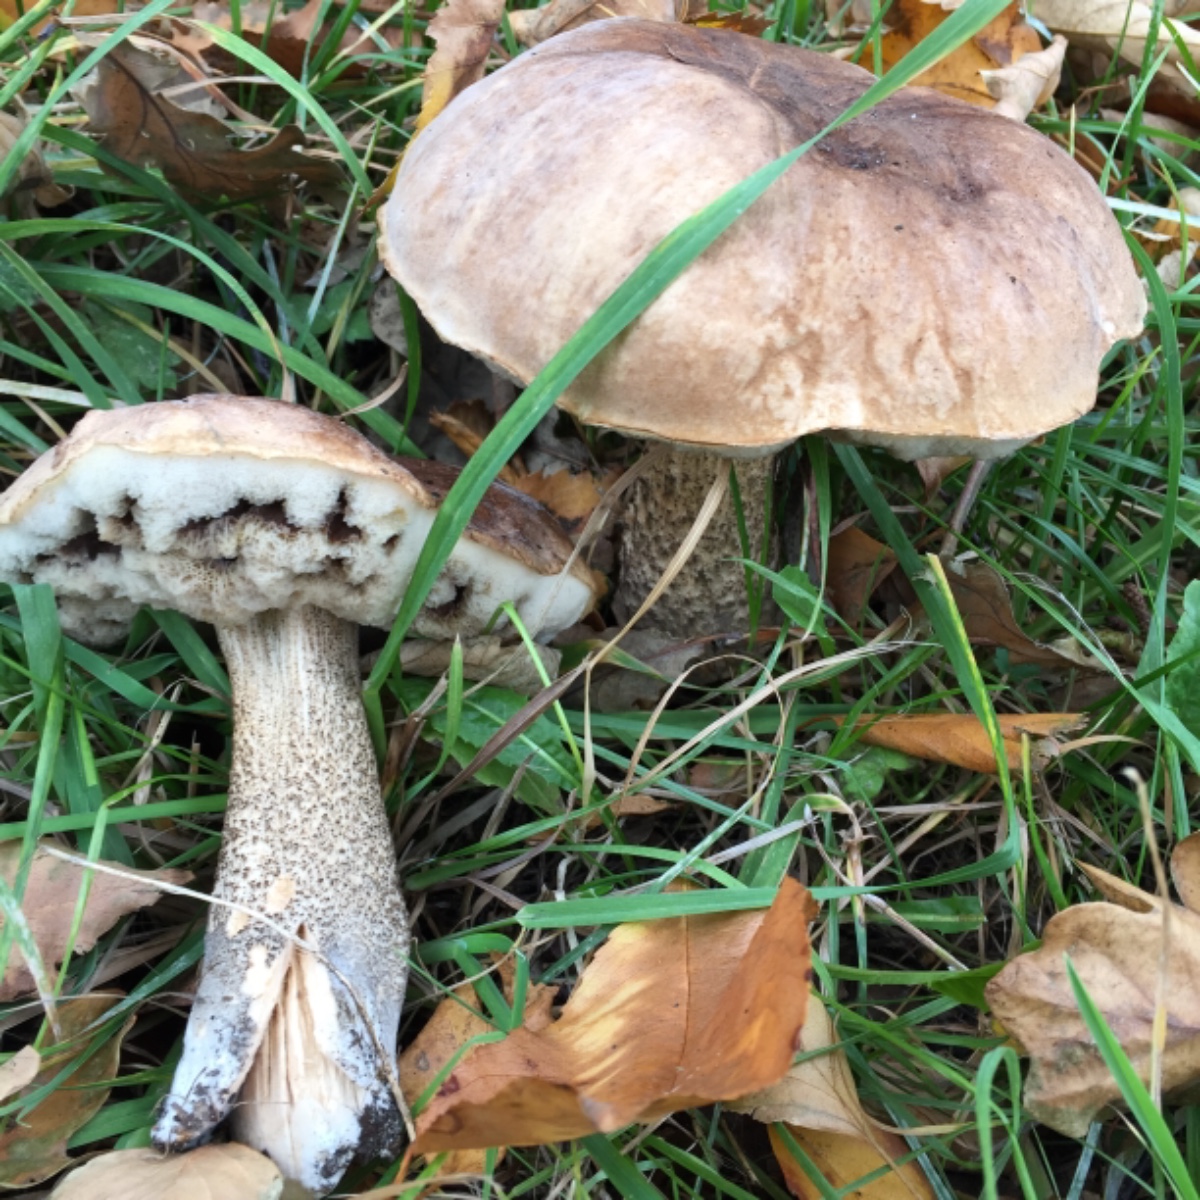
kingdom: Fungi
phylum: Basidiomycota
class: Agaricomycetes
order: Boletales
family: Boletaceae
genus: Leccinum
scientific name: Leccinum scabrum
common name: brun skælrørhat
